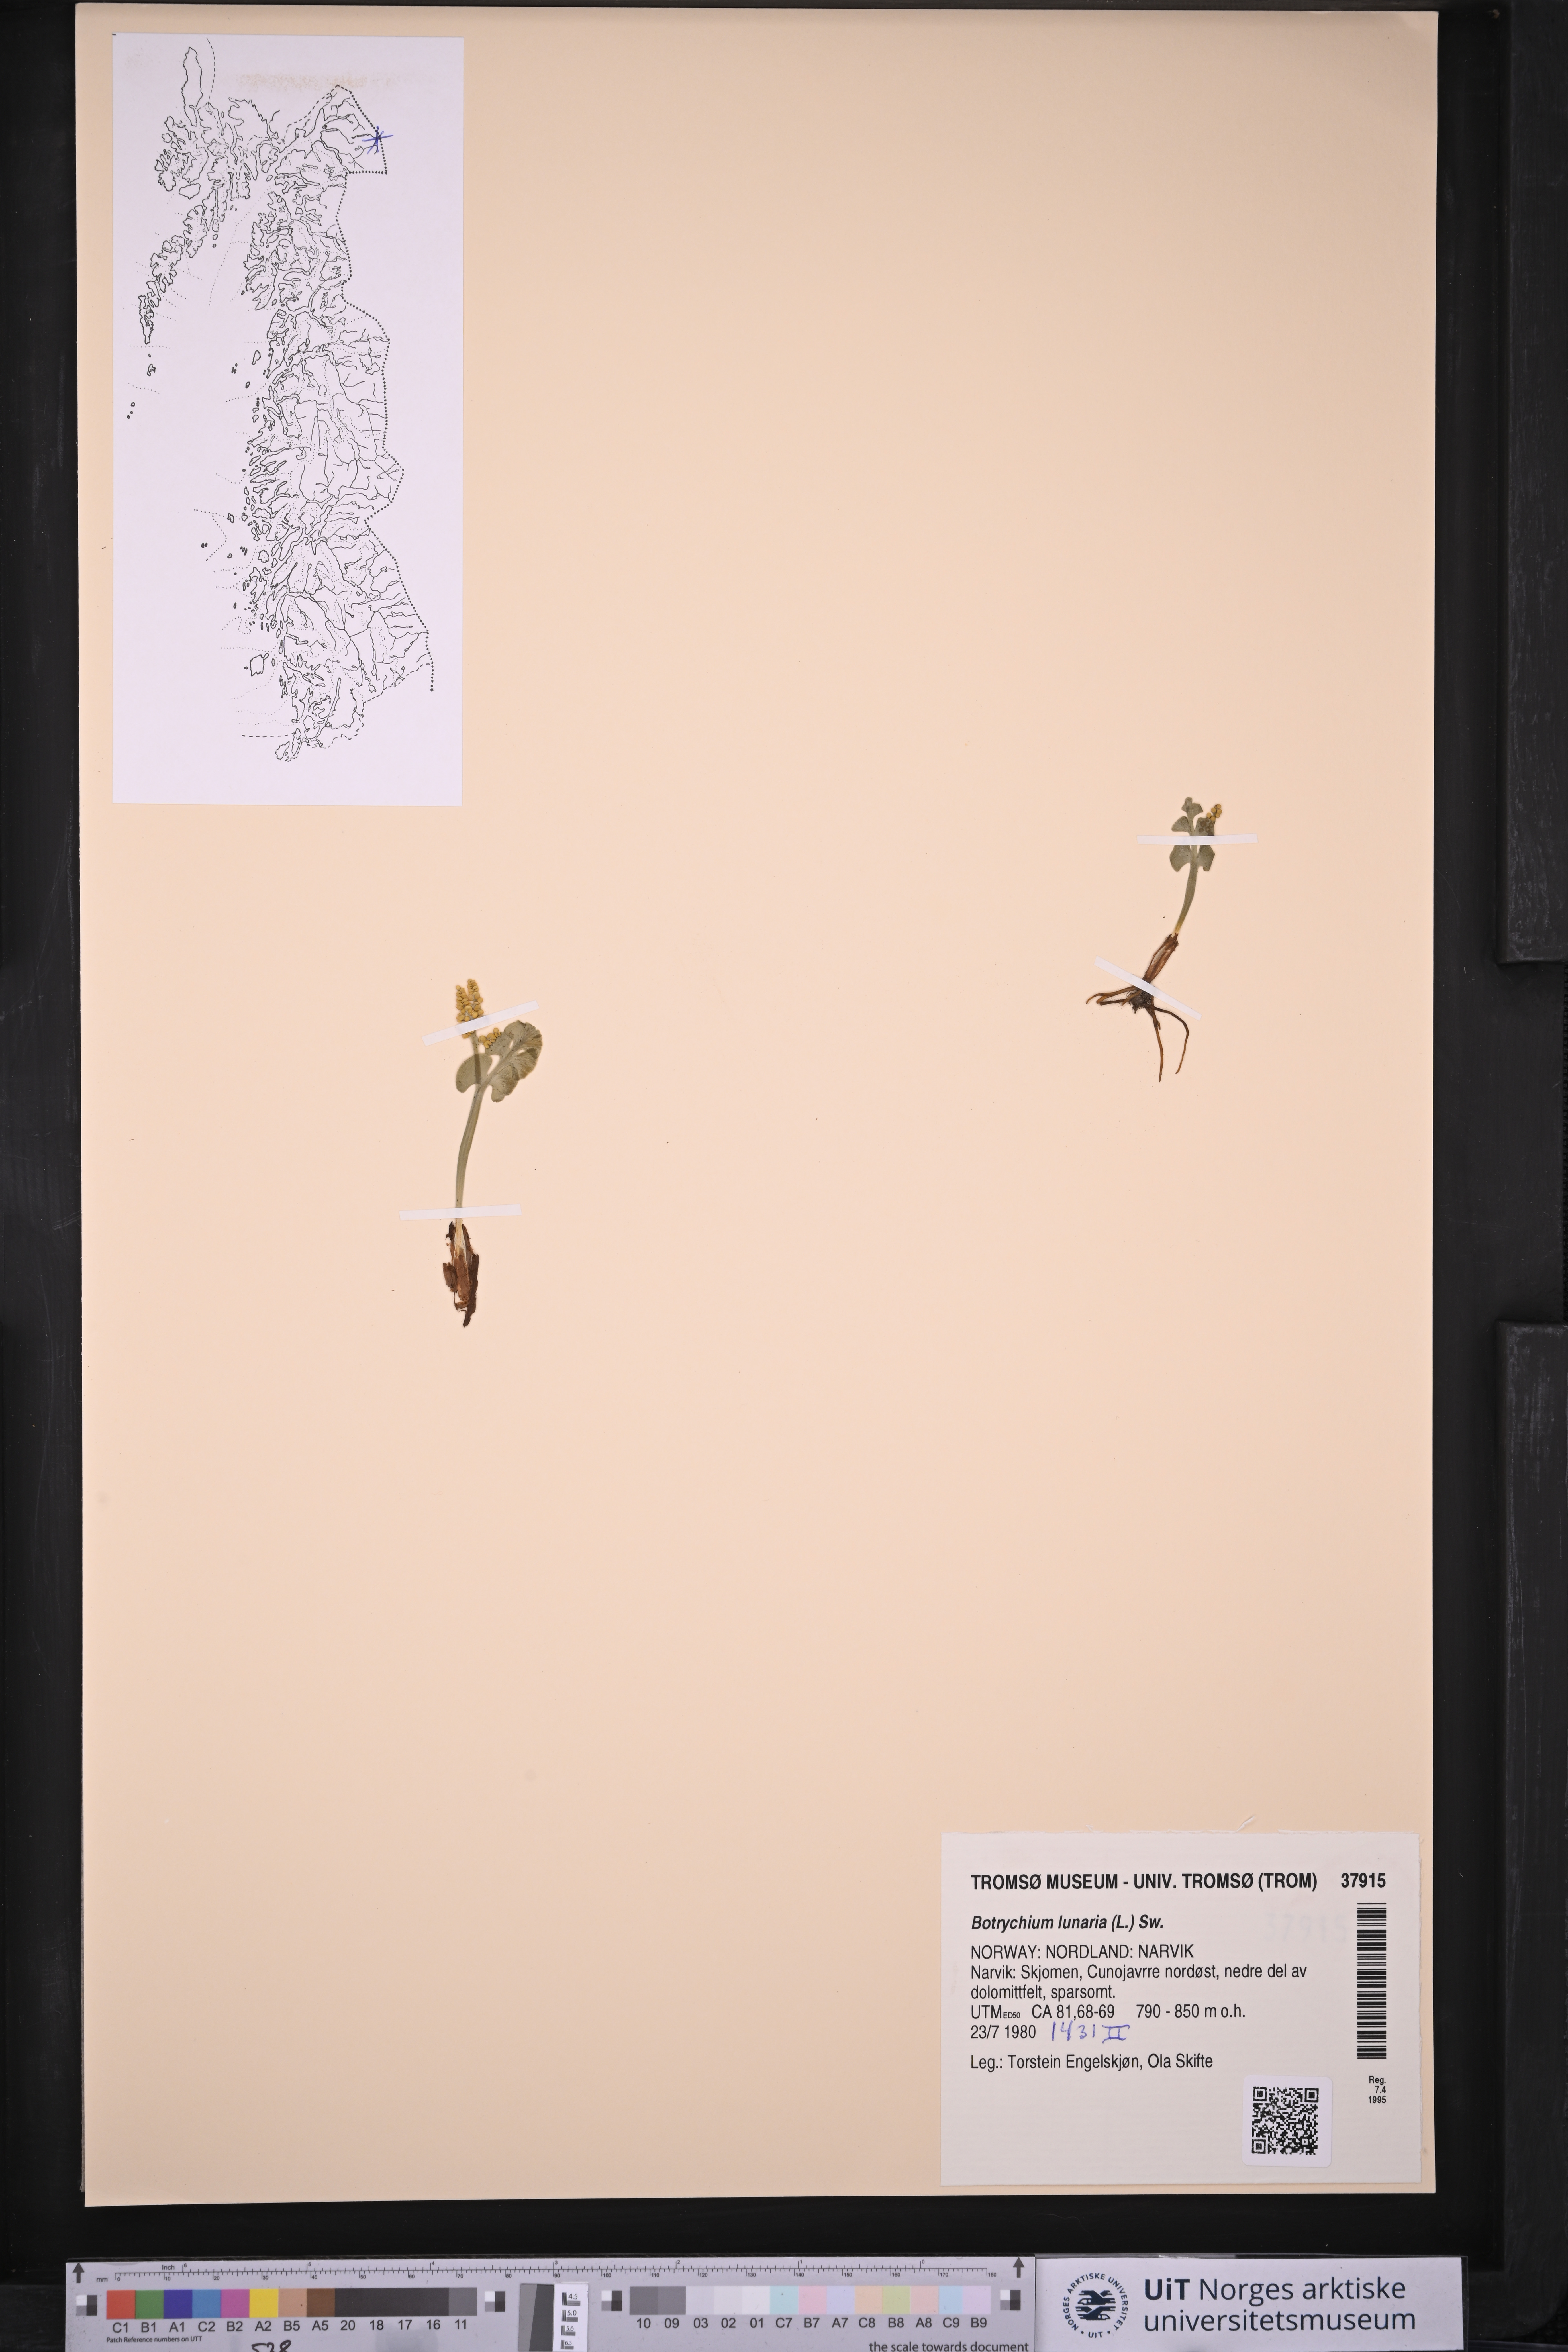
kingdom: Plantae
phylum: Tracheophyta
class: Polypodiopsida
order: Ophioglossales
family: Ophioglossaceae
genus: Botrychium
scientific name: Botrychium lunaria
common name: Moonwort
